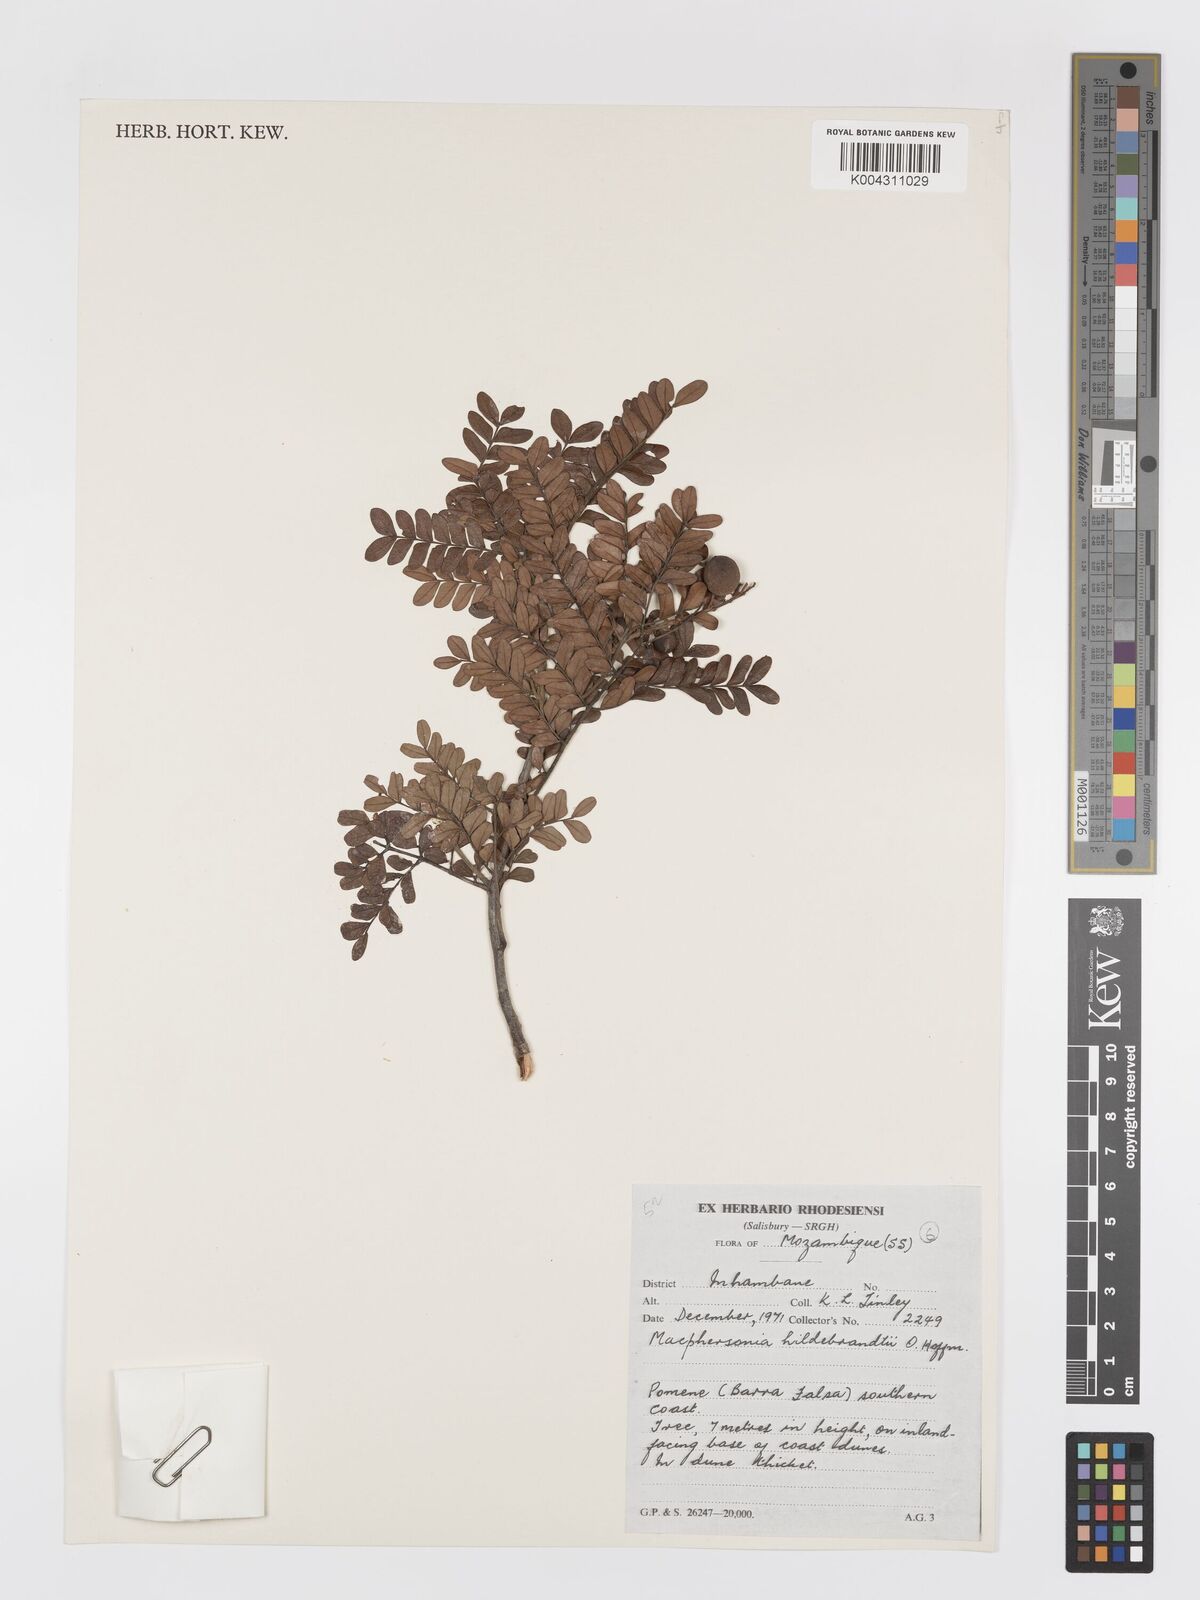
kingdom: Plantae
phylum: Tracheophyta
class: Magnoliopsida
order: Sapindales
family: Sapindaceae
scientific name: Sapindaceae
